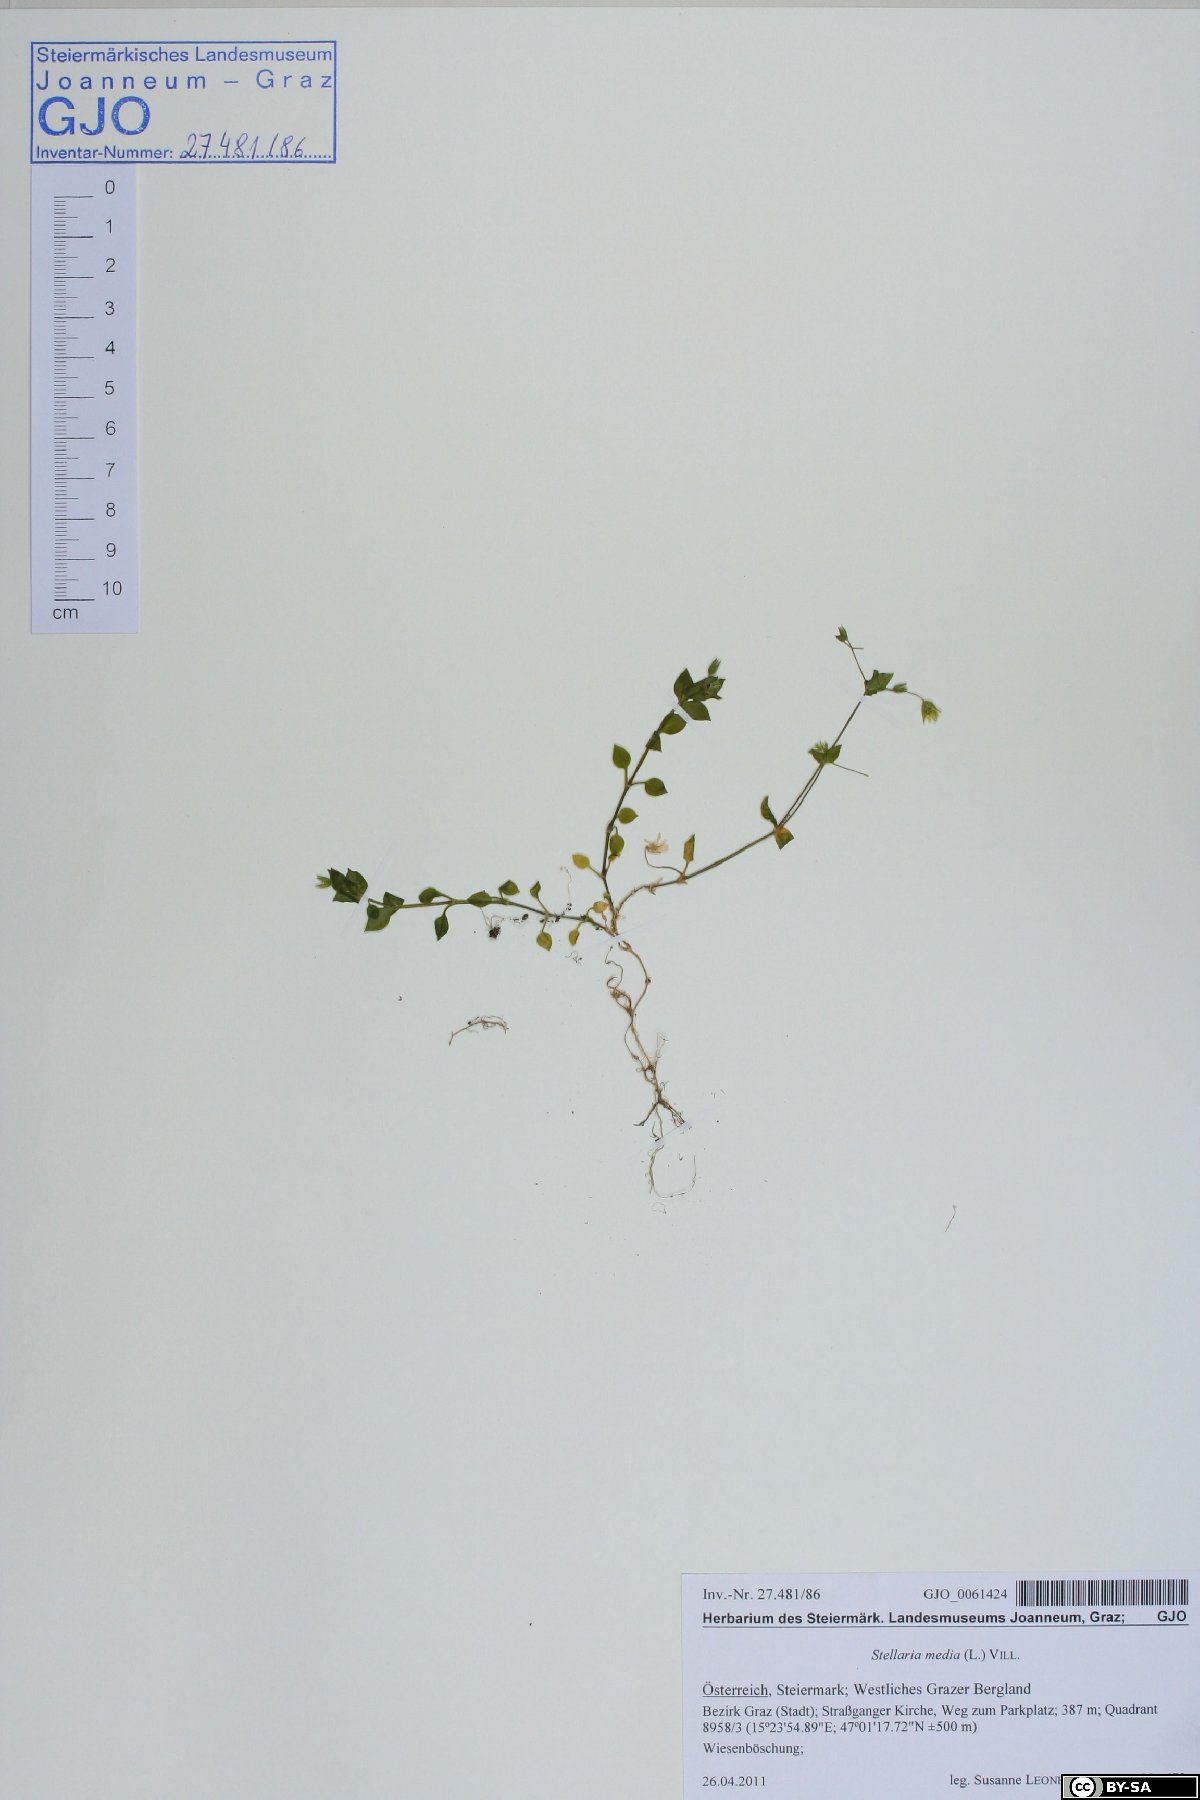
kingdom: Plantae
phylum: Tracheophyta
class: Magnoliopsida
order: Caryophyllales
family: Caryophyllaceae
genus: Stellaria
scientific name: Stellaria media
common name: Common chickweed
